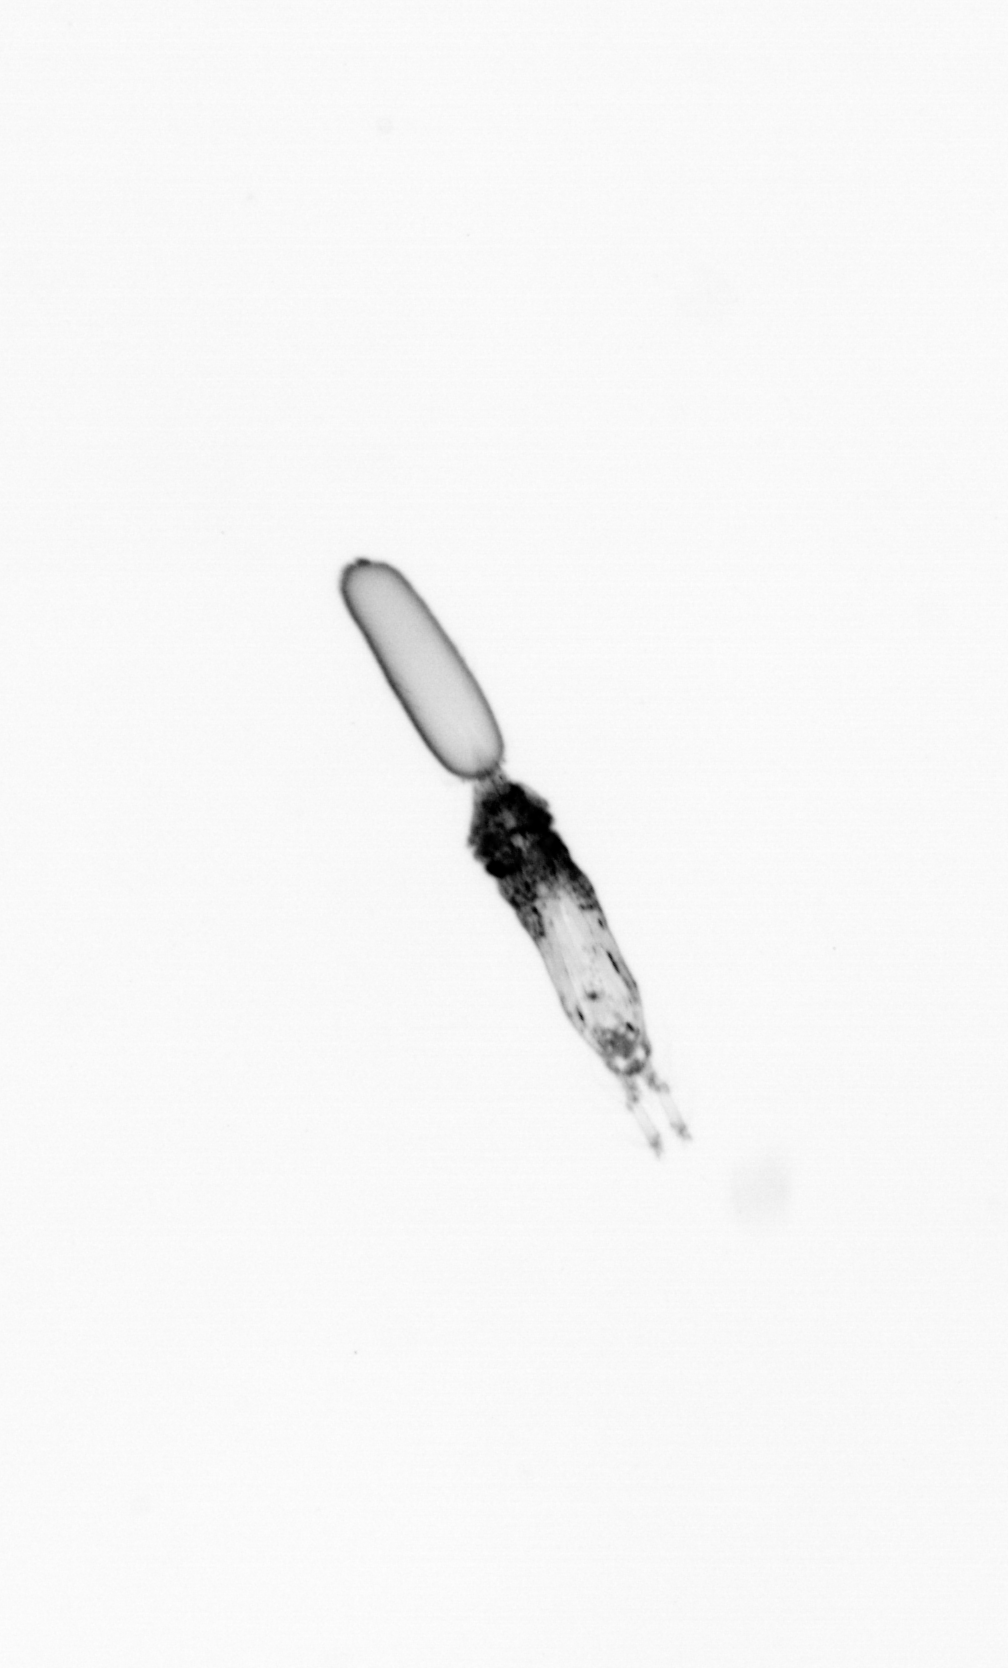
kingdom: Animalia
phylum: Arthropoda
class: Copepoda
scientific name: Copepoda
